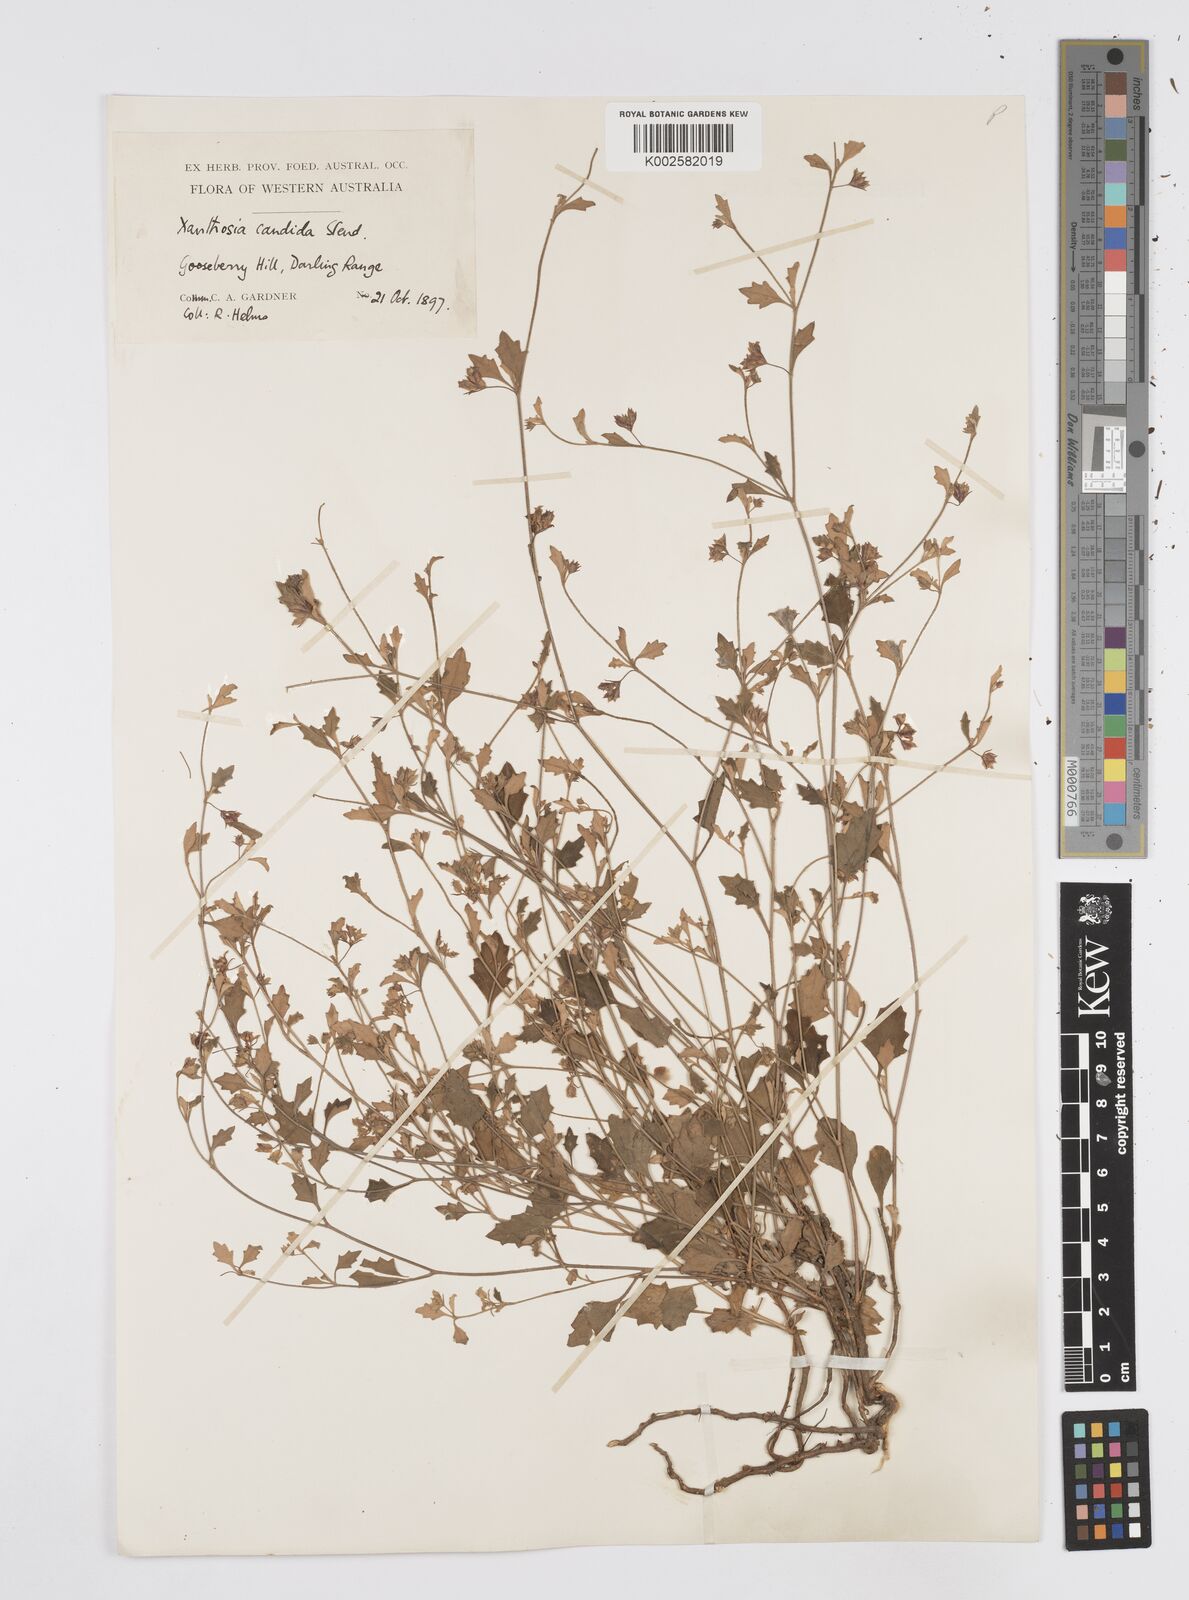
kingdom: Plantae
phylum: Tracheophyta
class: Magnoliopsida
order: Apiales
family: Apiaceae
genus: Xanthosia
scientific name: Xanthosia candida
